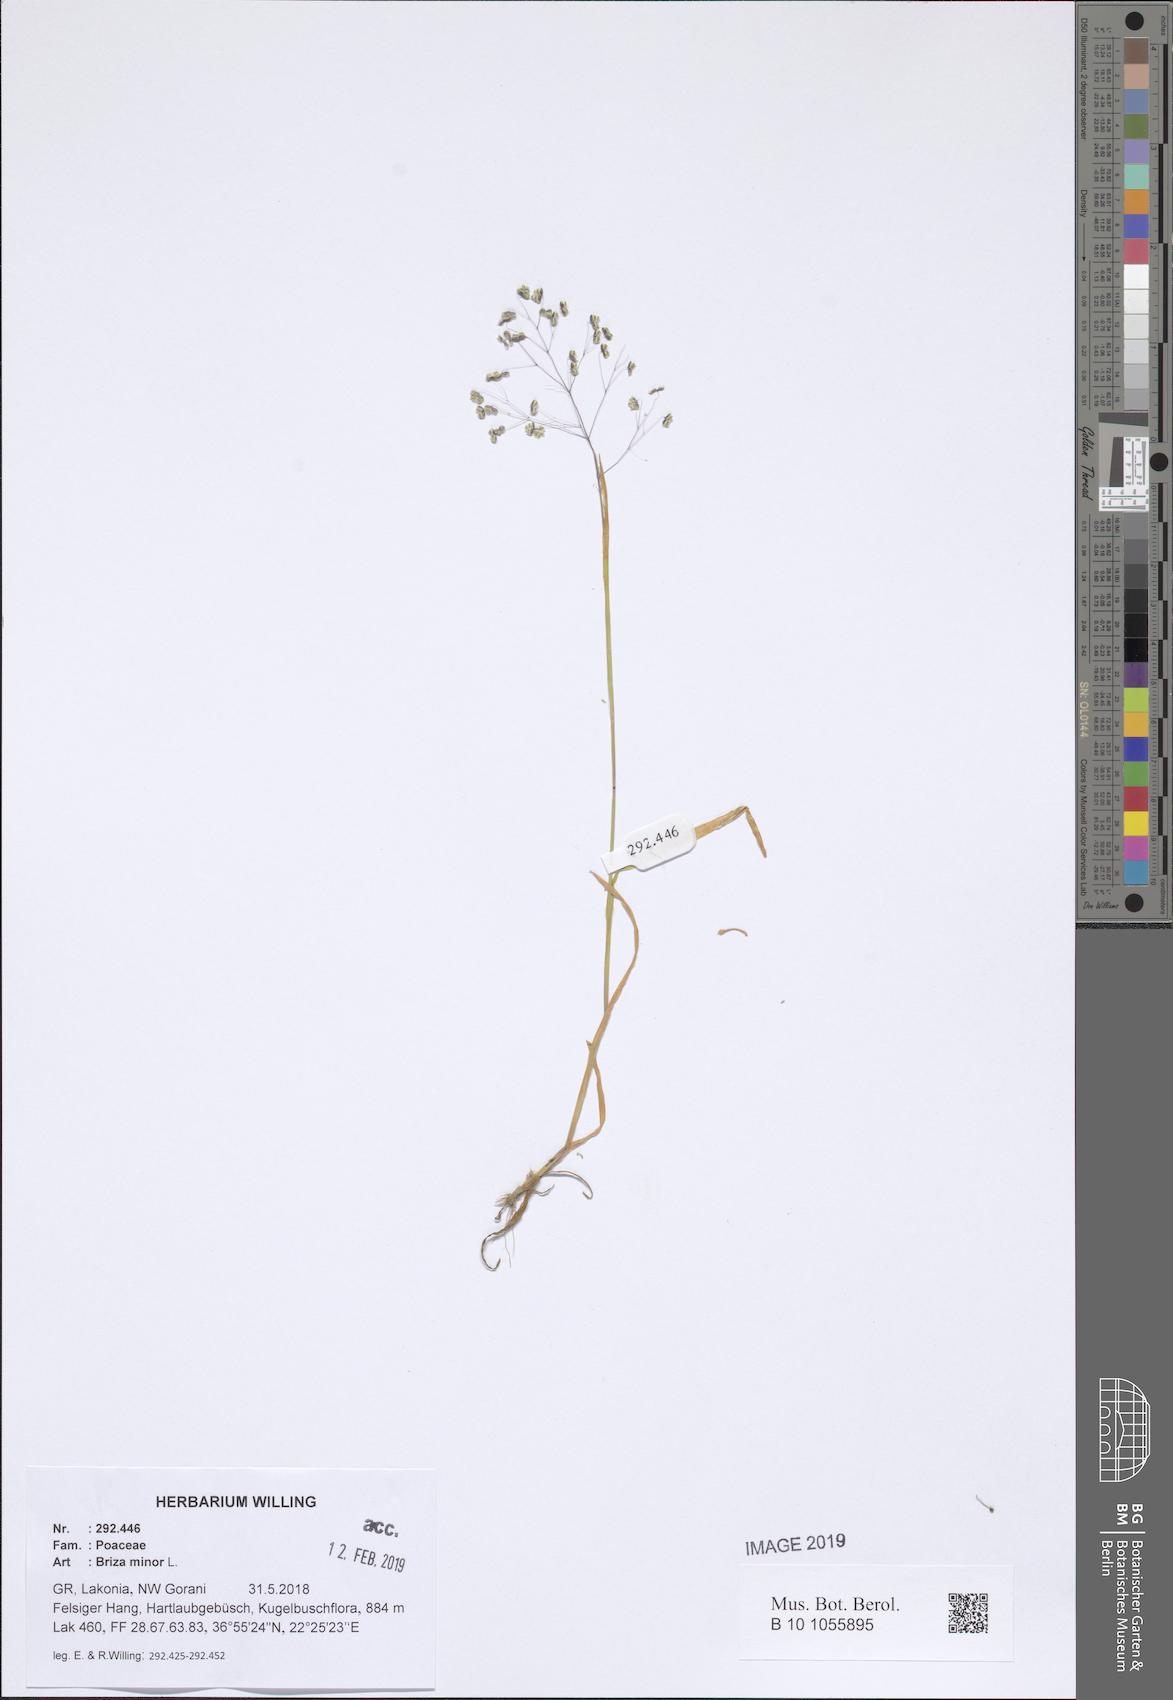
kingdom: Plantae
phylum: Tracheophyta
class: Liliopsida
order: Poales
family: Poaceae
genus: Briza
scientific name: Briza minor
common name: Lesser quaking-grass
